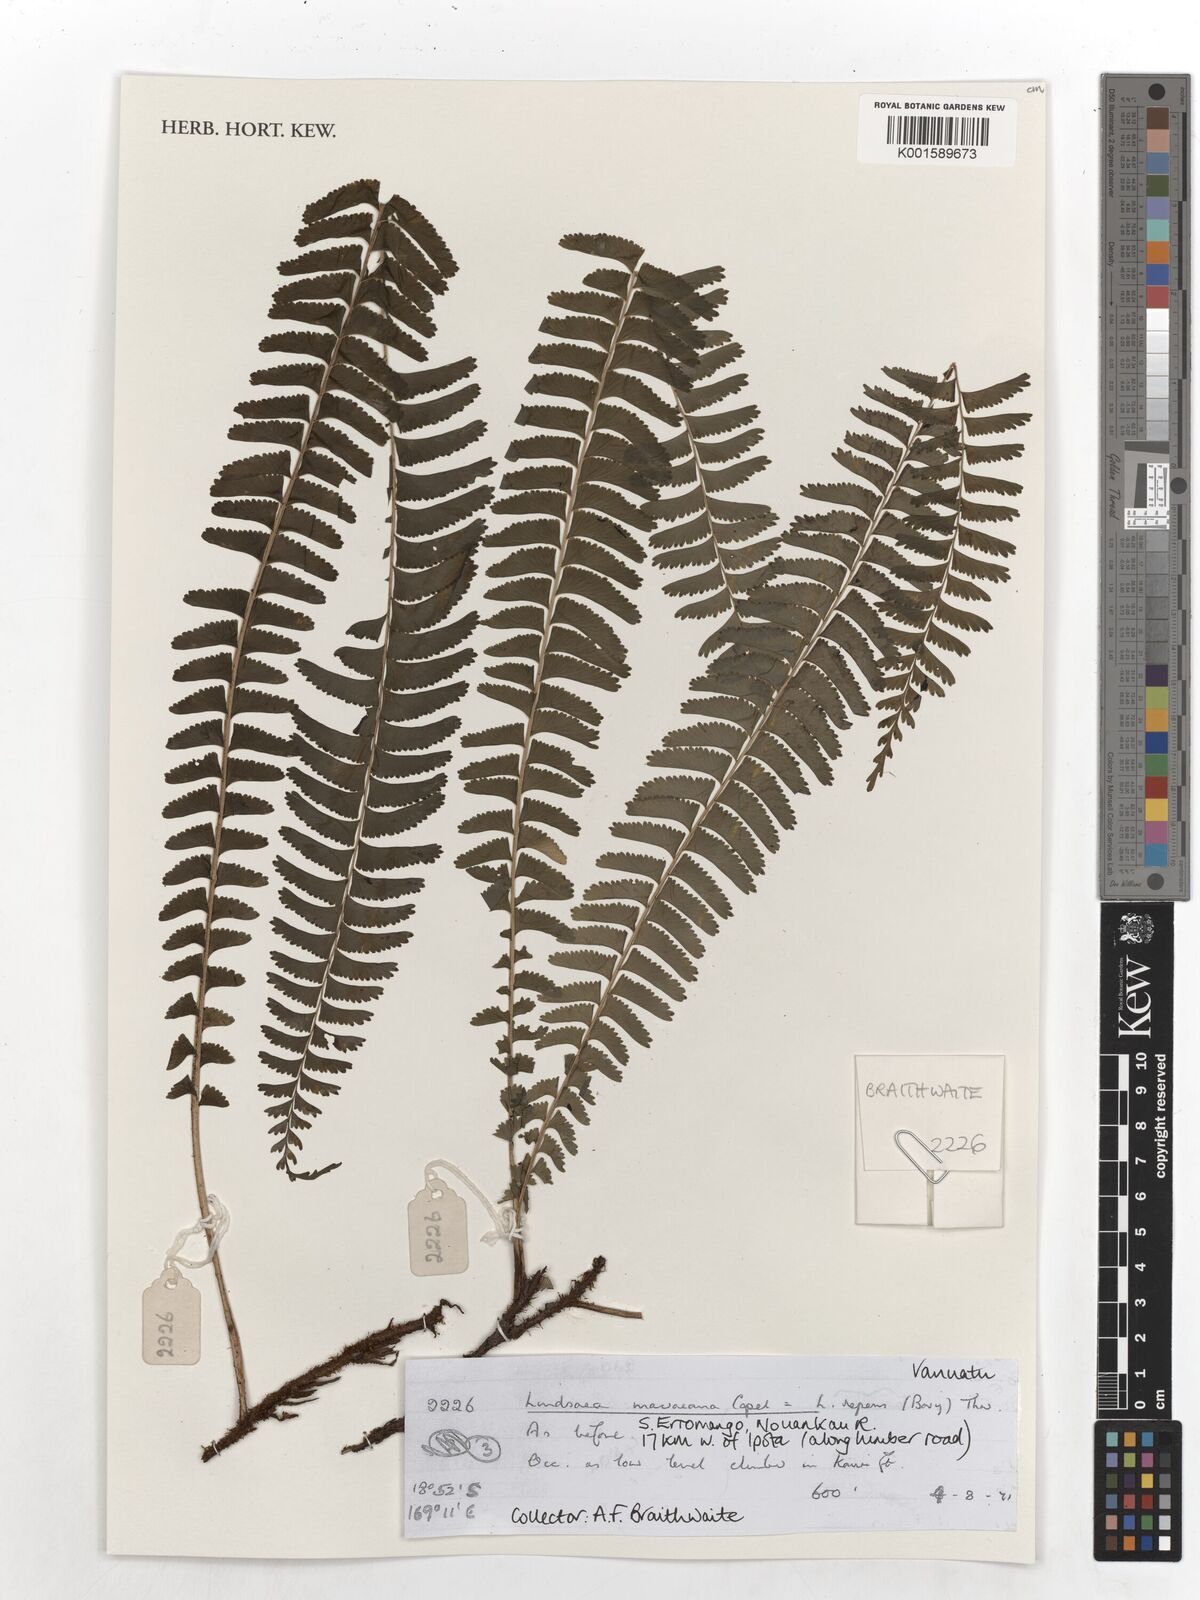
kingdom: Plantae
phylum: Tracheophyta
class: Polypodiopsida
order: Polypodiales
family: Lindsaeaceae
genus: Lindsaea
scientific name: Lindsaea capillacea
